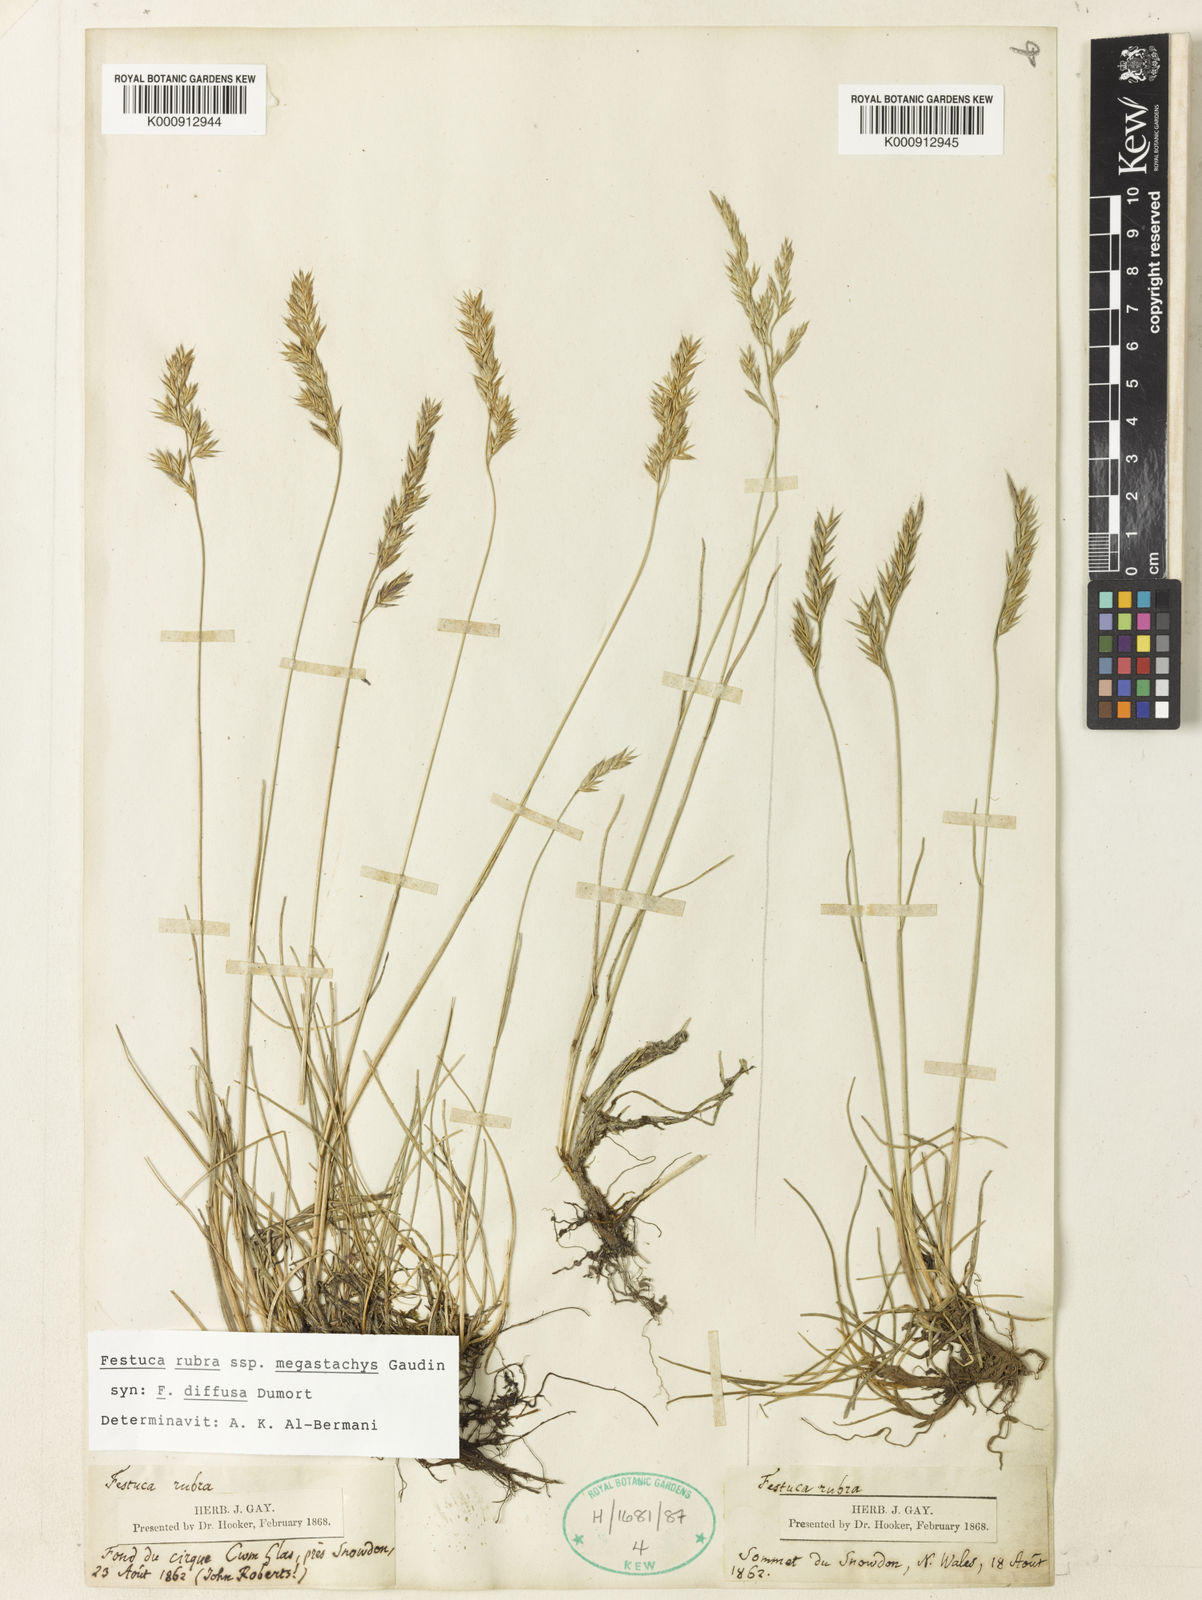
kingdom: Plantae
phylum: Tracheophyta
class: Liliopsida
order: Poales
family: Poaceae
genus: Festuca
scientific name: Festuca rubra
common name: Red fescue
